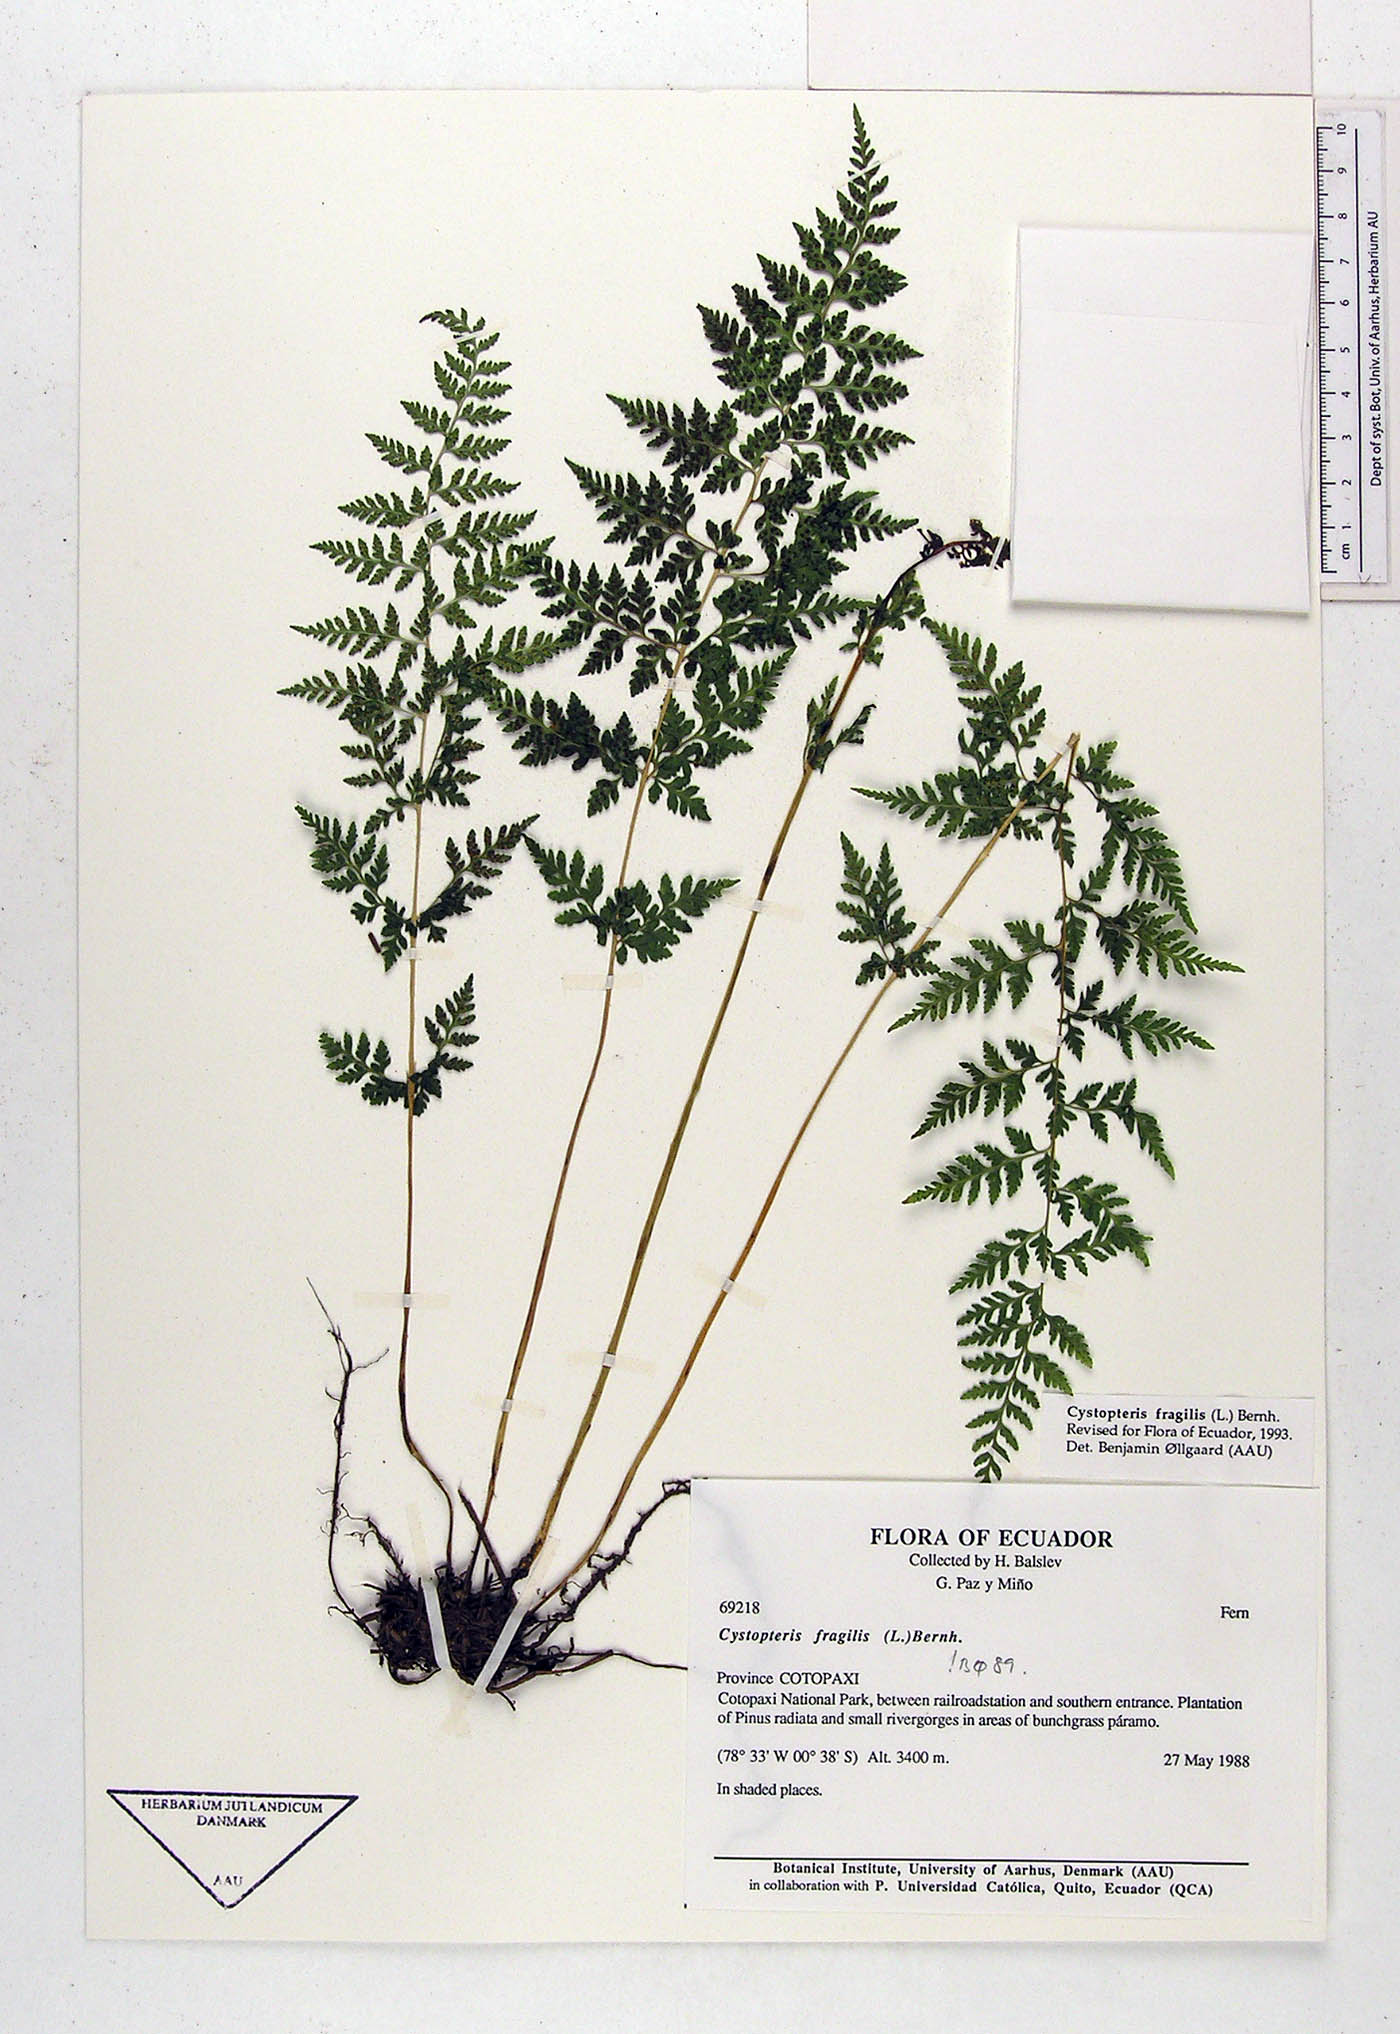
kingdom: Plantae
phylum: Tracheophyta
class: Polypodiopsida
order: Polypodiales
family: Cystopteridaceae
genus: Cystopteris
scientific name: Cystopteris fragilis
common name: Brittle bladder fern
